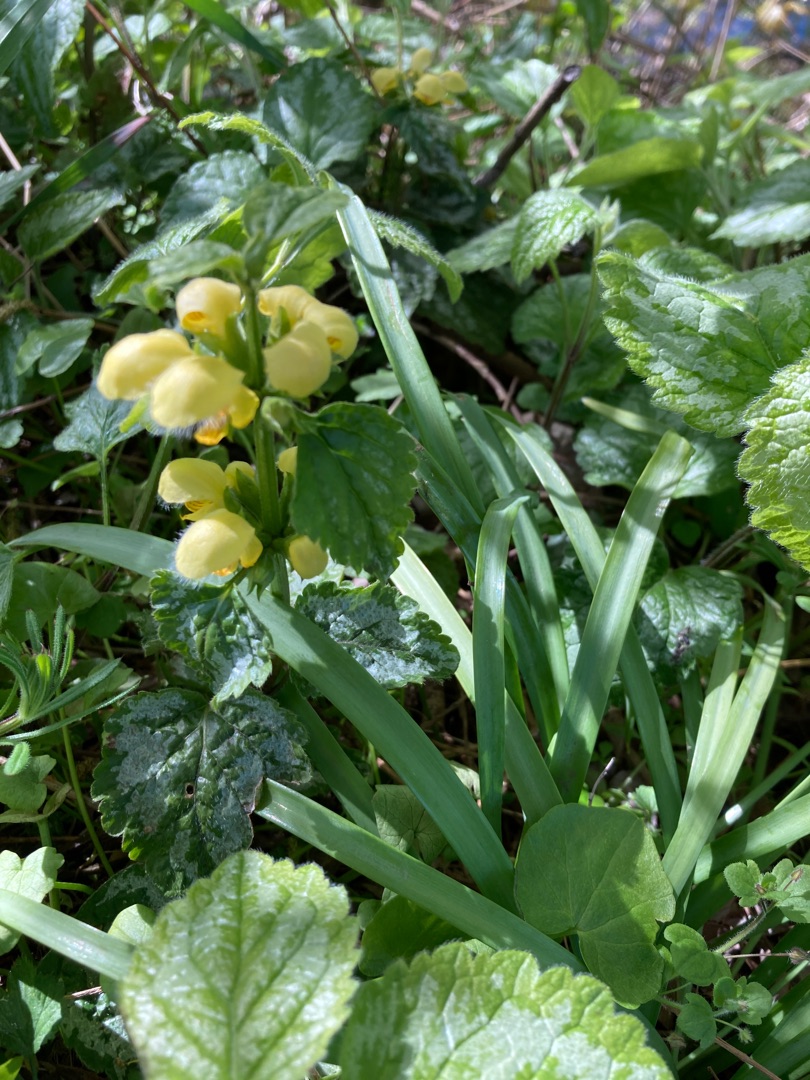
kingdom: Plantae
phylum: Tracheophyta
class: Magnoliopsida
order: Lamiales
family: Lamiaceae
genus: Lamium
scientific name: Lamium galeobdolon
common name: Have-guldnælde
